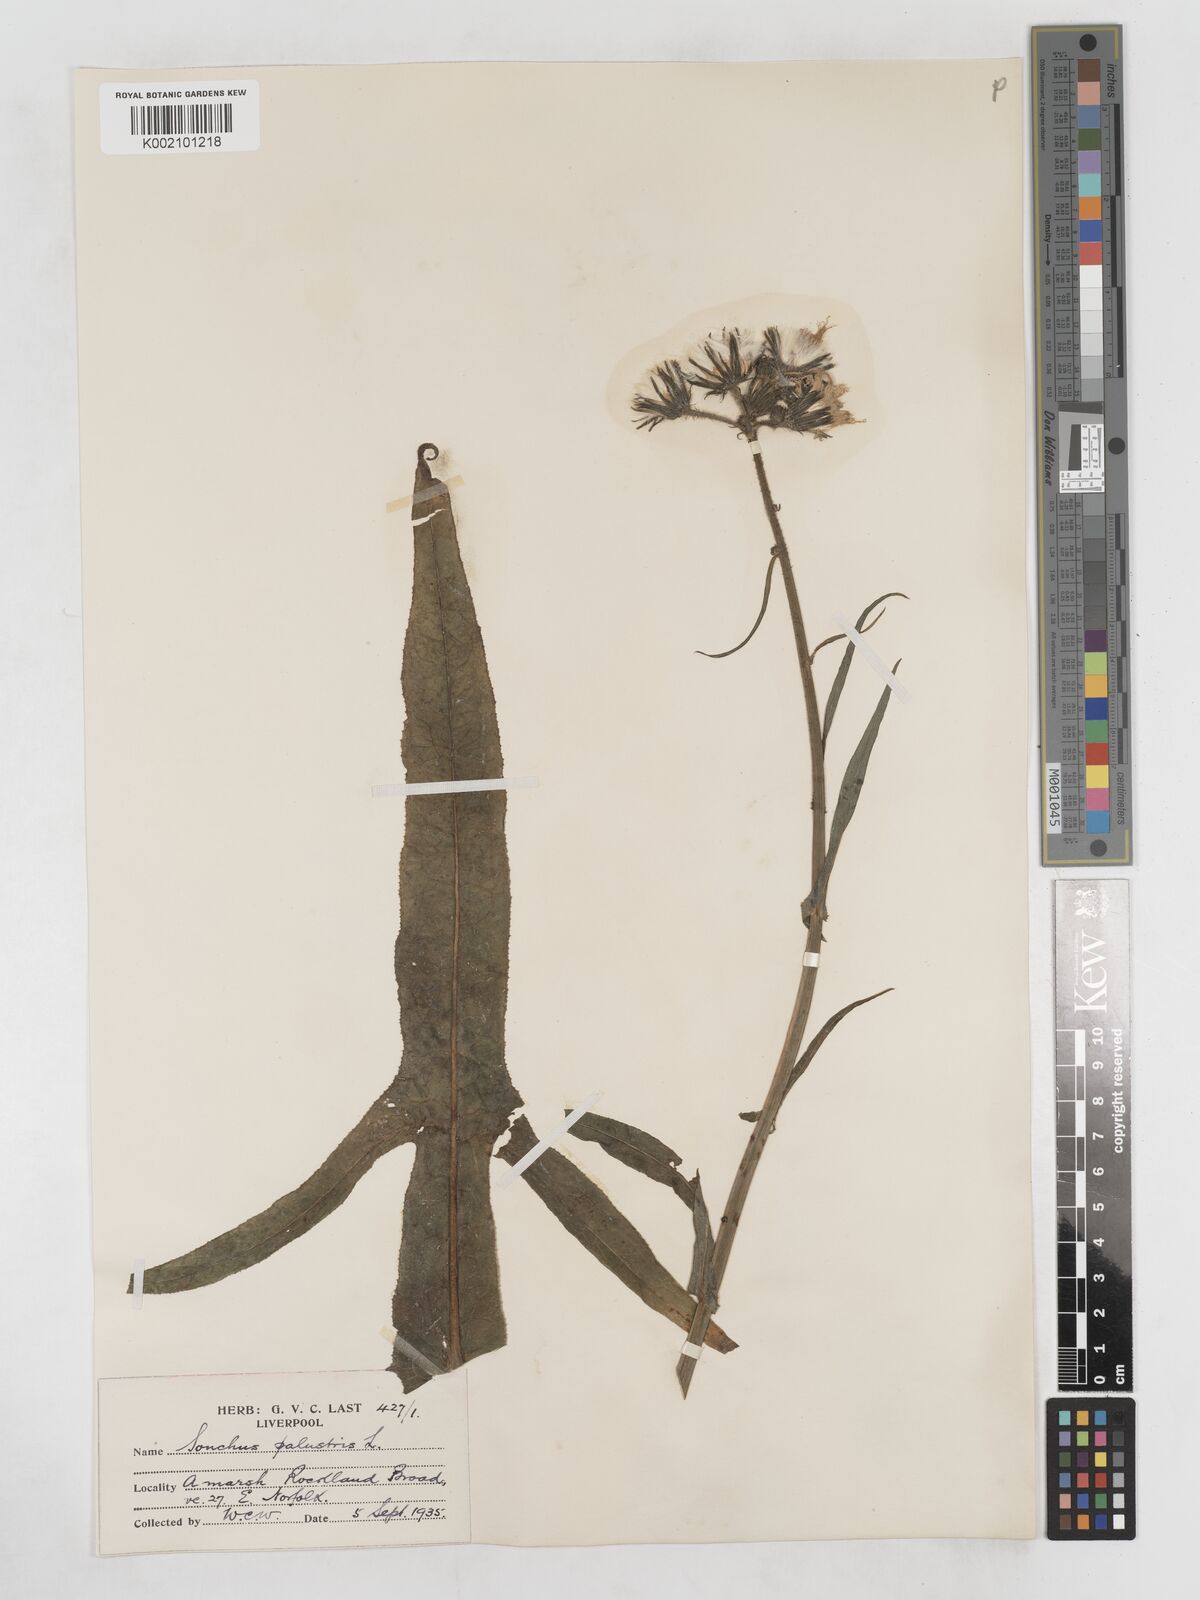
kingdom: Plantae
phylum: Tracheophyta
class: Magnoliopsida
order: Asterales
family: Asteraceae
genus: Sonchus
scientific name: Sonchus palustris
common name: Marsh sow-thistle
